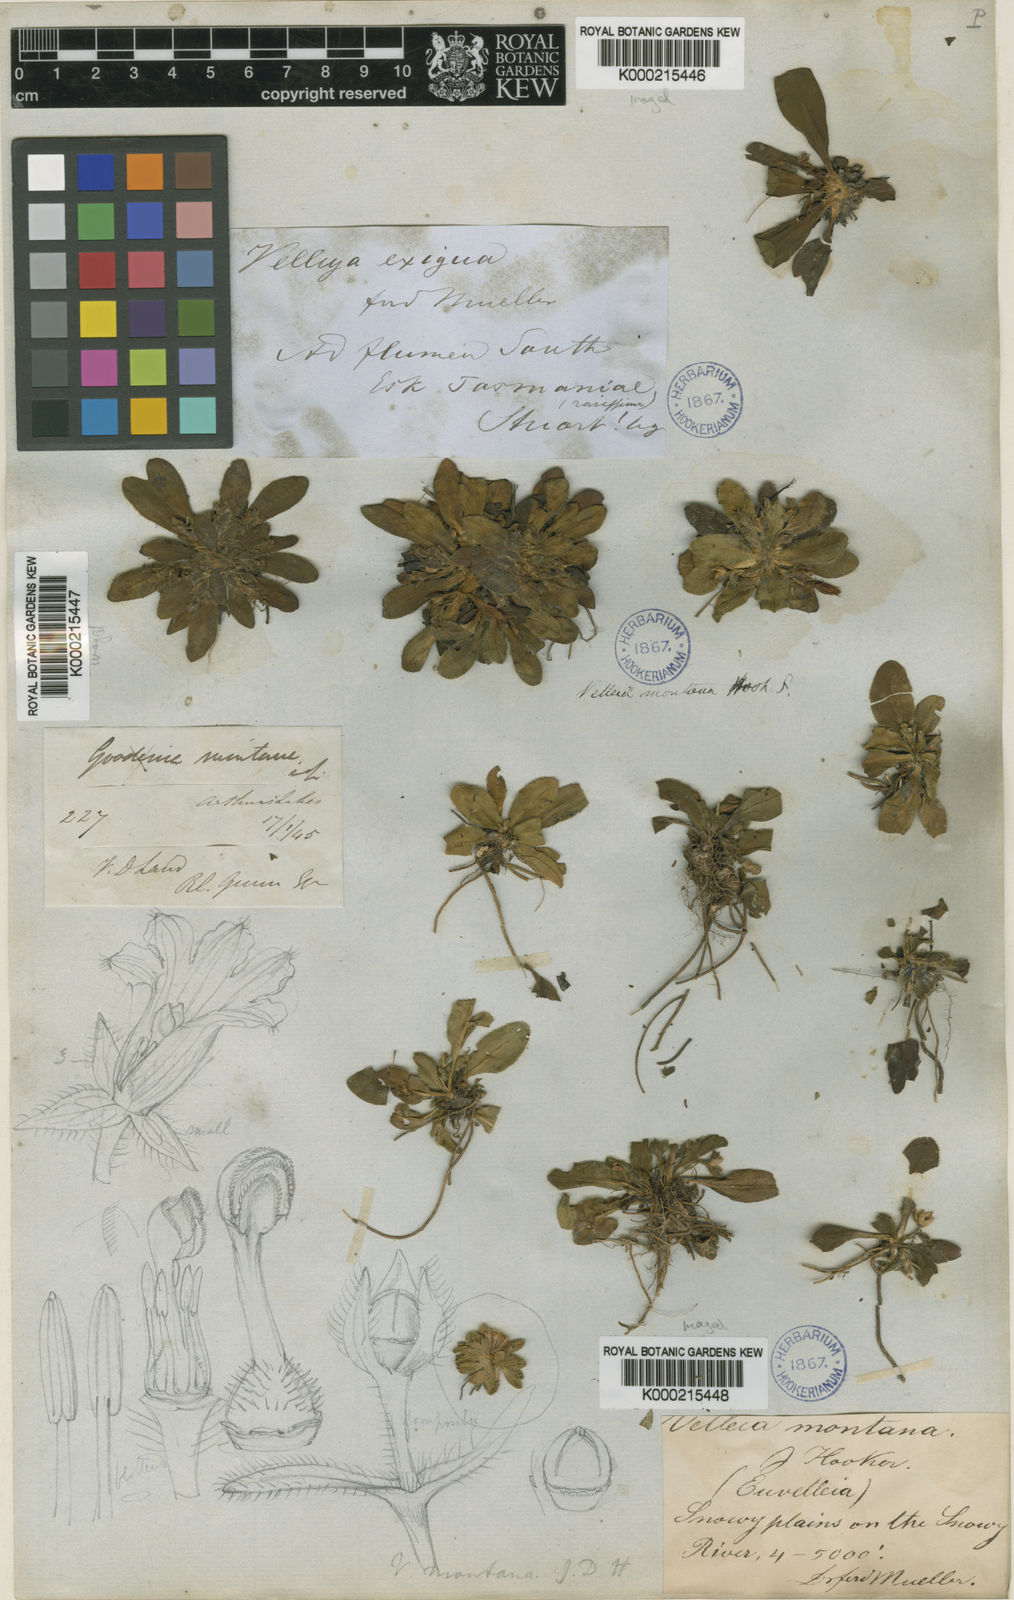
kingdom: Plantae
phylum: Tracheophyta
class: Magnoliopsida
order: Asterales
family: Goodeniaceae
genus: Goodenia
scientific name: Goodenia montana
